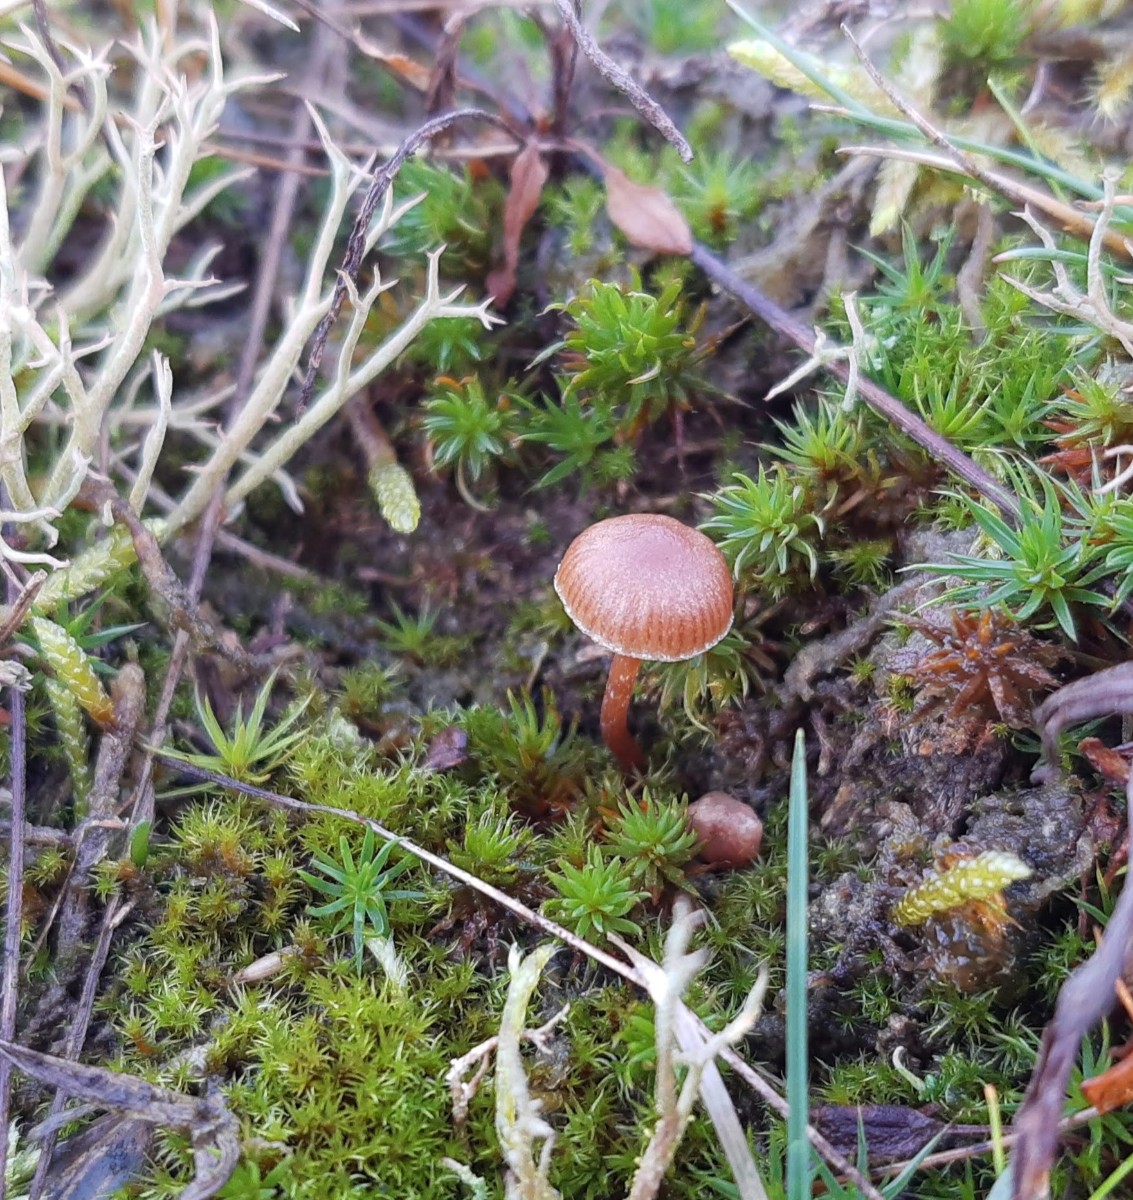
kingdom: Fungi
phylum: Basidiomycota
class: Agaricomycetes
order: Agaricales
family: Strophariaceae
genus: Deconica
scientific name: Deconica montana
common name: rødbrun stråhat
